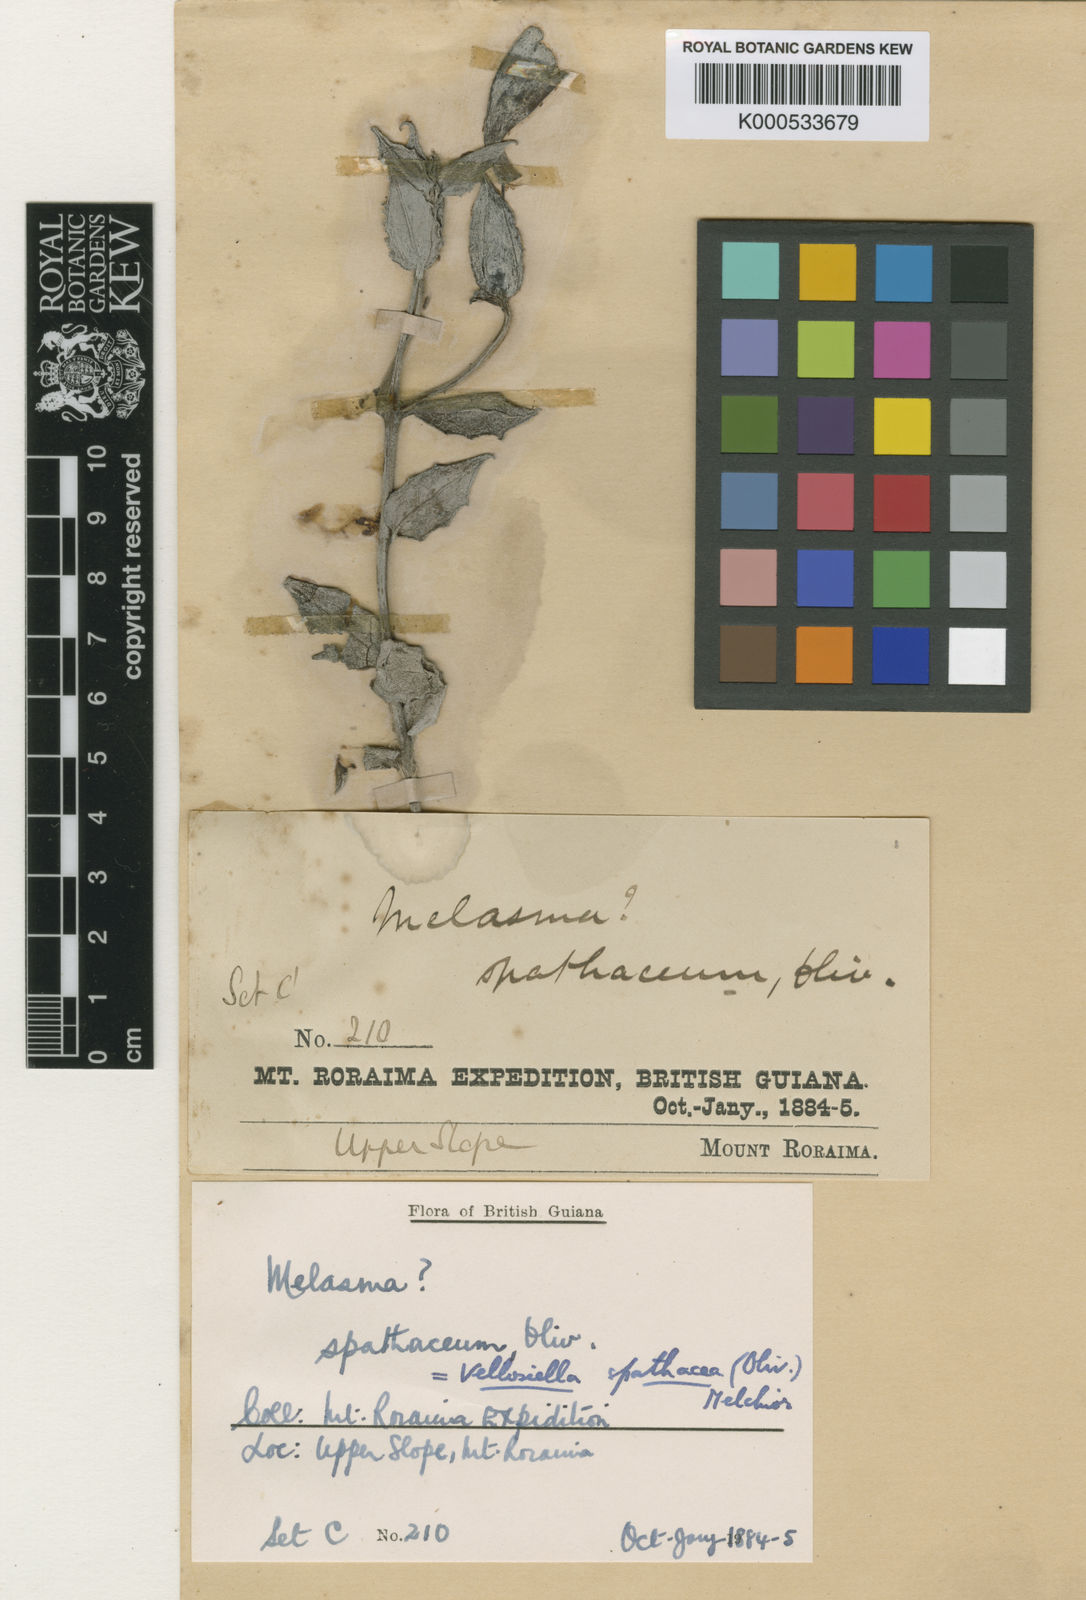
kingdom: Plantae
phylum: Tracheophyta
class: Magnoliopsida
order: Lamiales
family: Orobanchaceae
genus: Vellosiella
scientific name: Vellosiella spathacea
